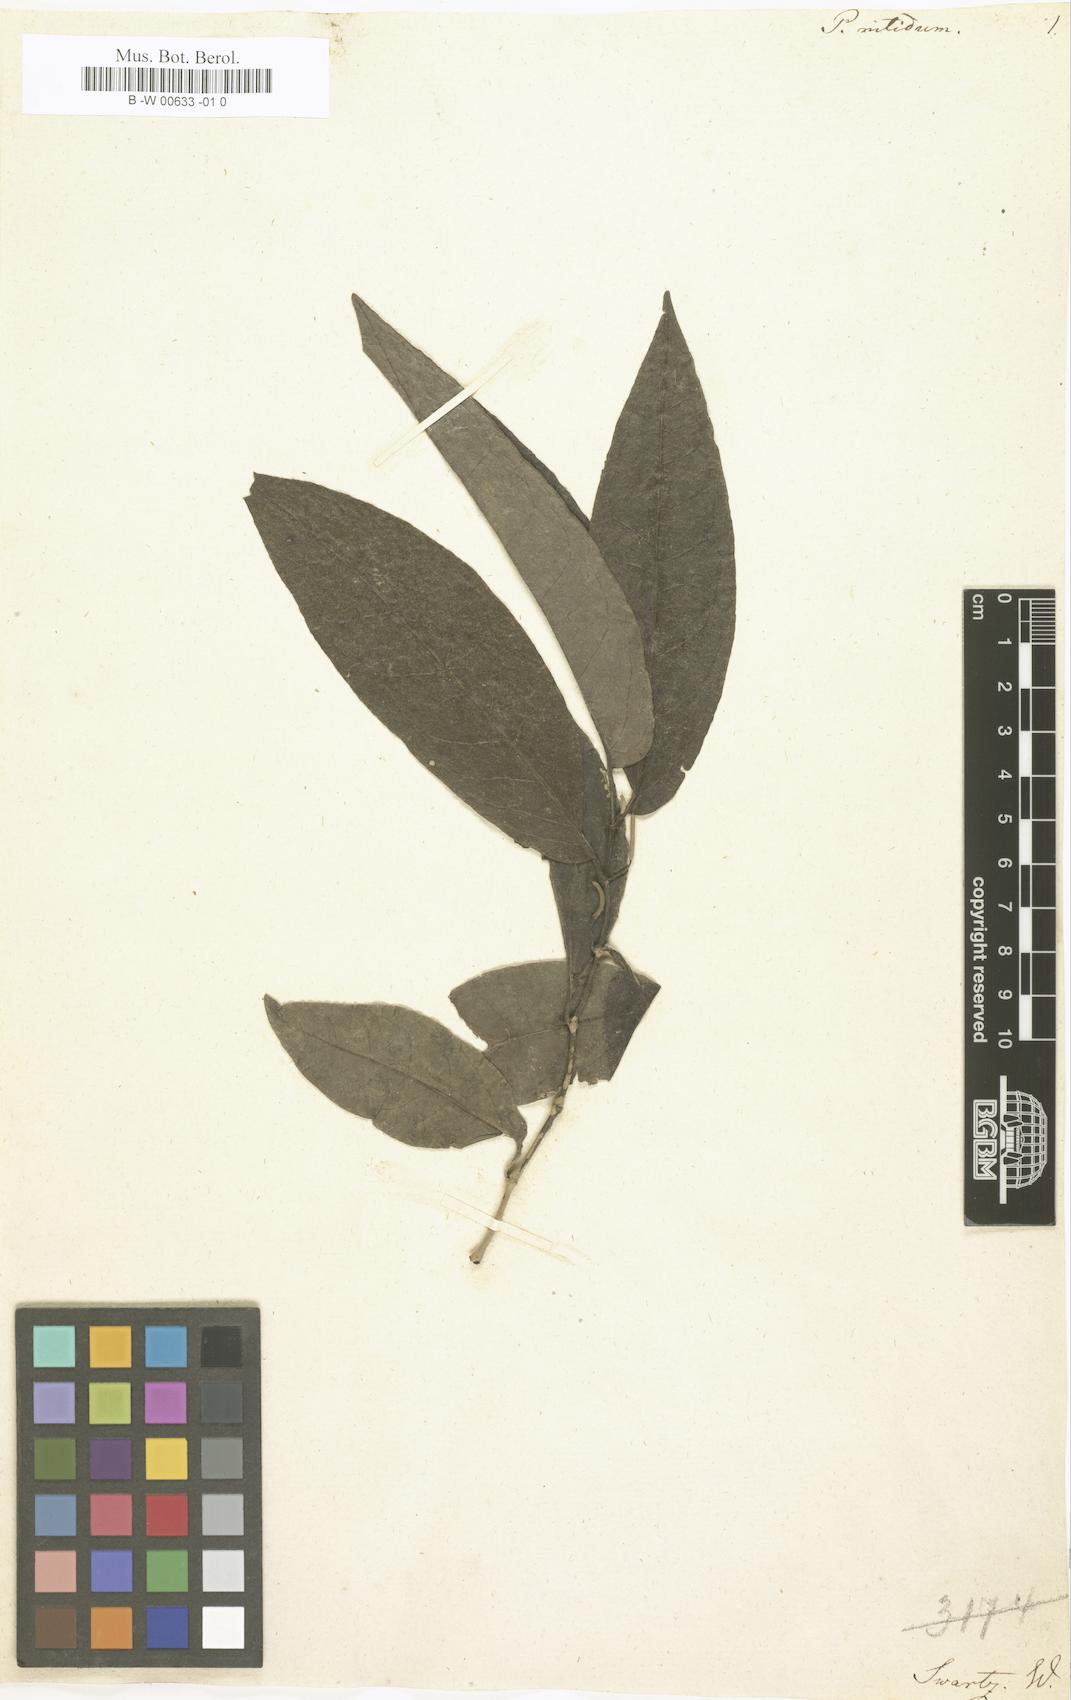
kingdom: Plantae
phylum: Tracheophyta
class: Magnoliopsida
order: Piperales
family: Piperaceae
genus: Piper
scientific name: Piper arboreum
